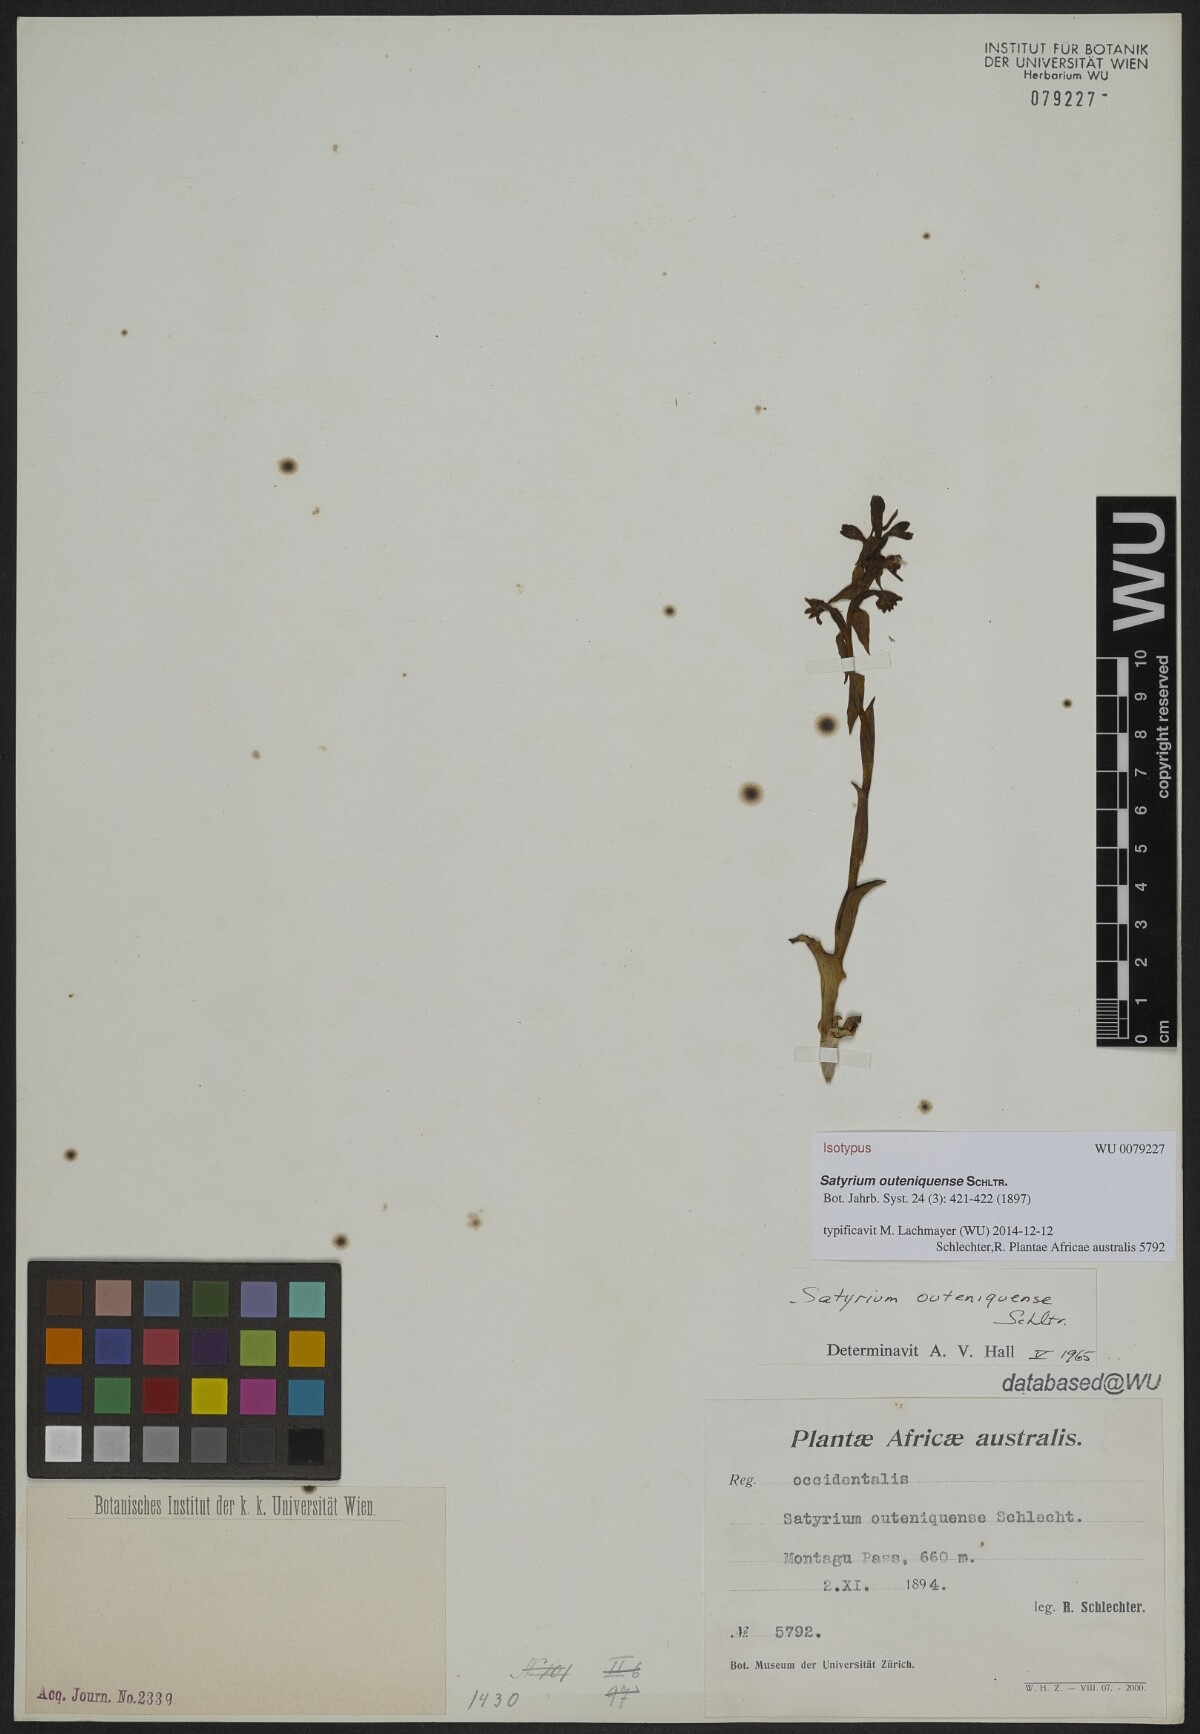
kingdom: Plantae
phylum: Tracheophyta
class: Liliopsida
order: Asparagales
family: Orchidaceae
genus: Satyrium
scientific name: Satyrium outeniquense
